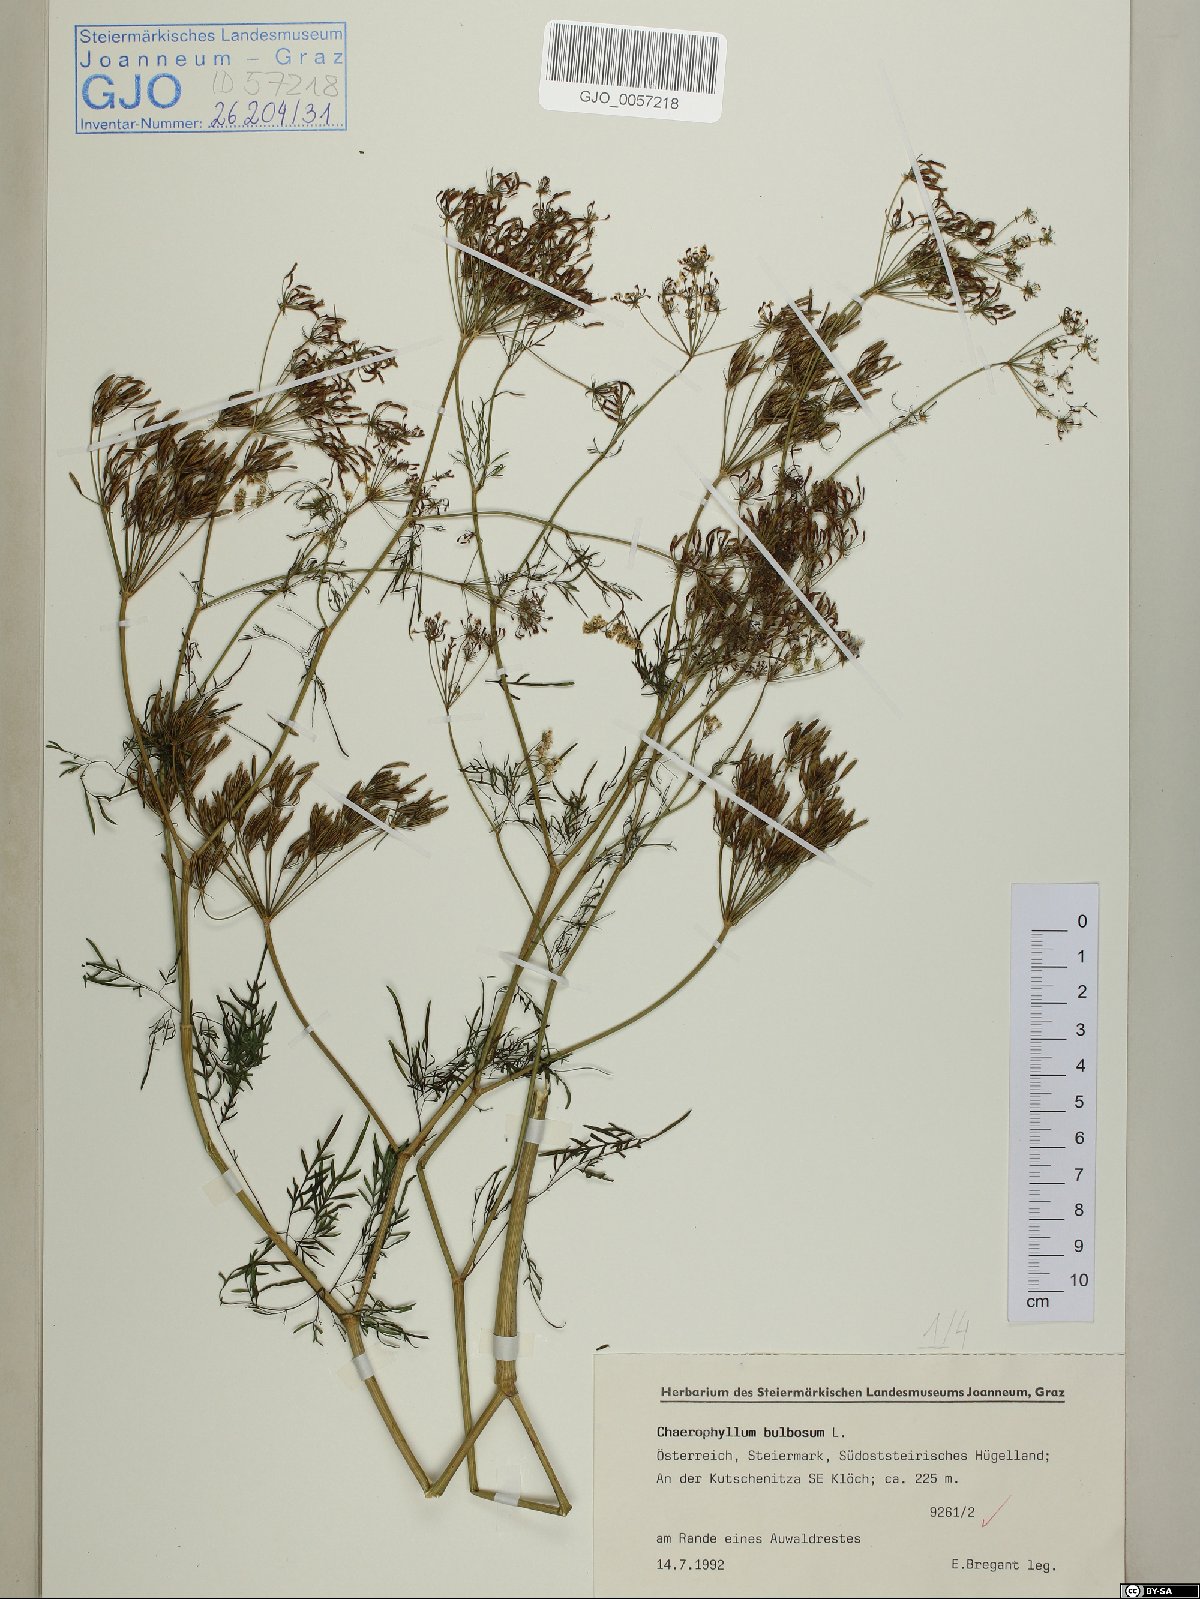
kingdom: Plantae
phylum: Tracheophyta
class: Magnoliopsida
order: Apiales
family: Apiaceae
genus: Chaerophyllum
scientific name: Chaerophyllum bulbosum
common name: Bulbous chervil
